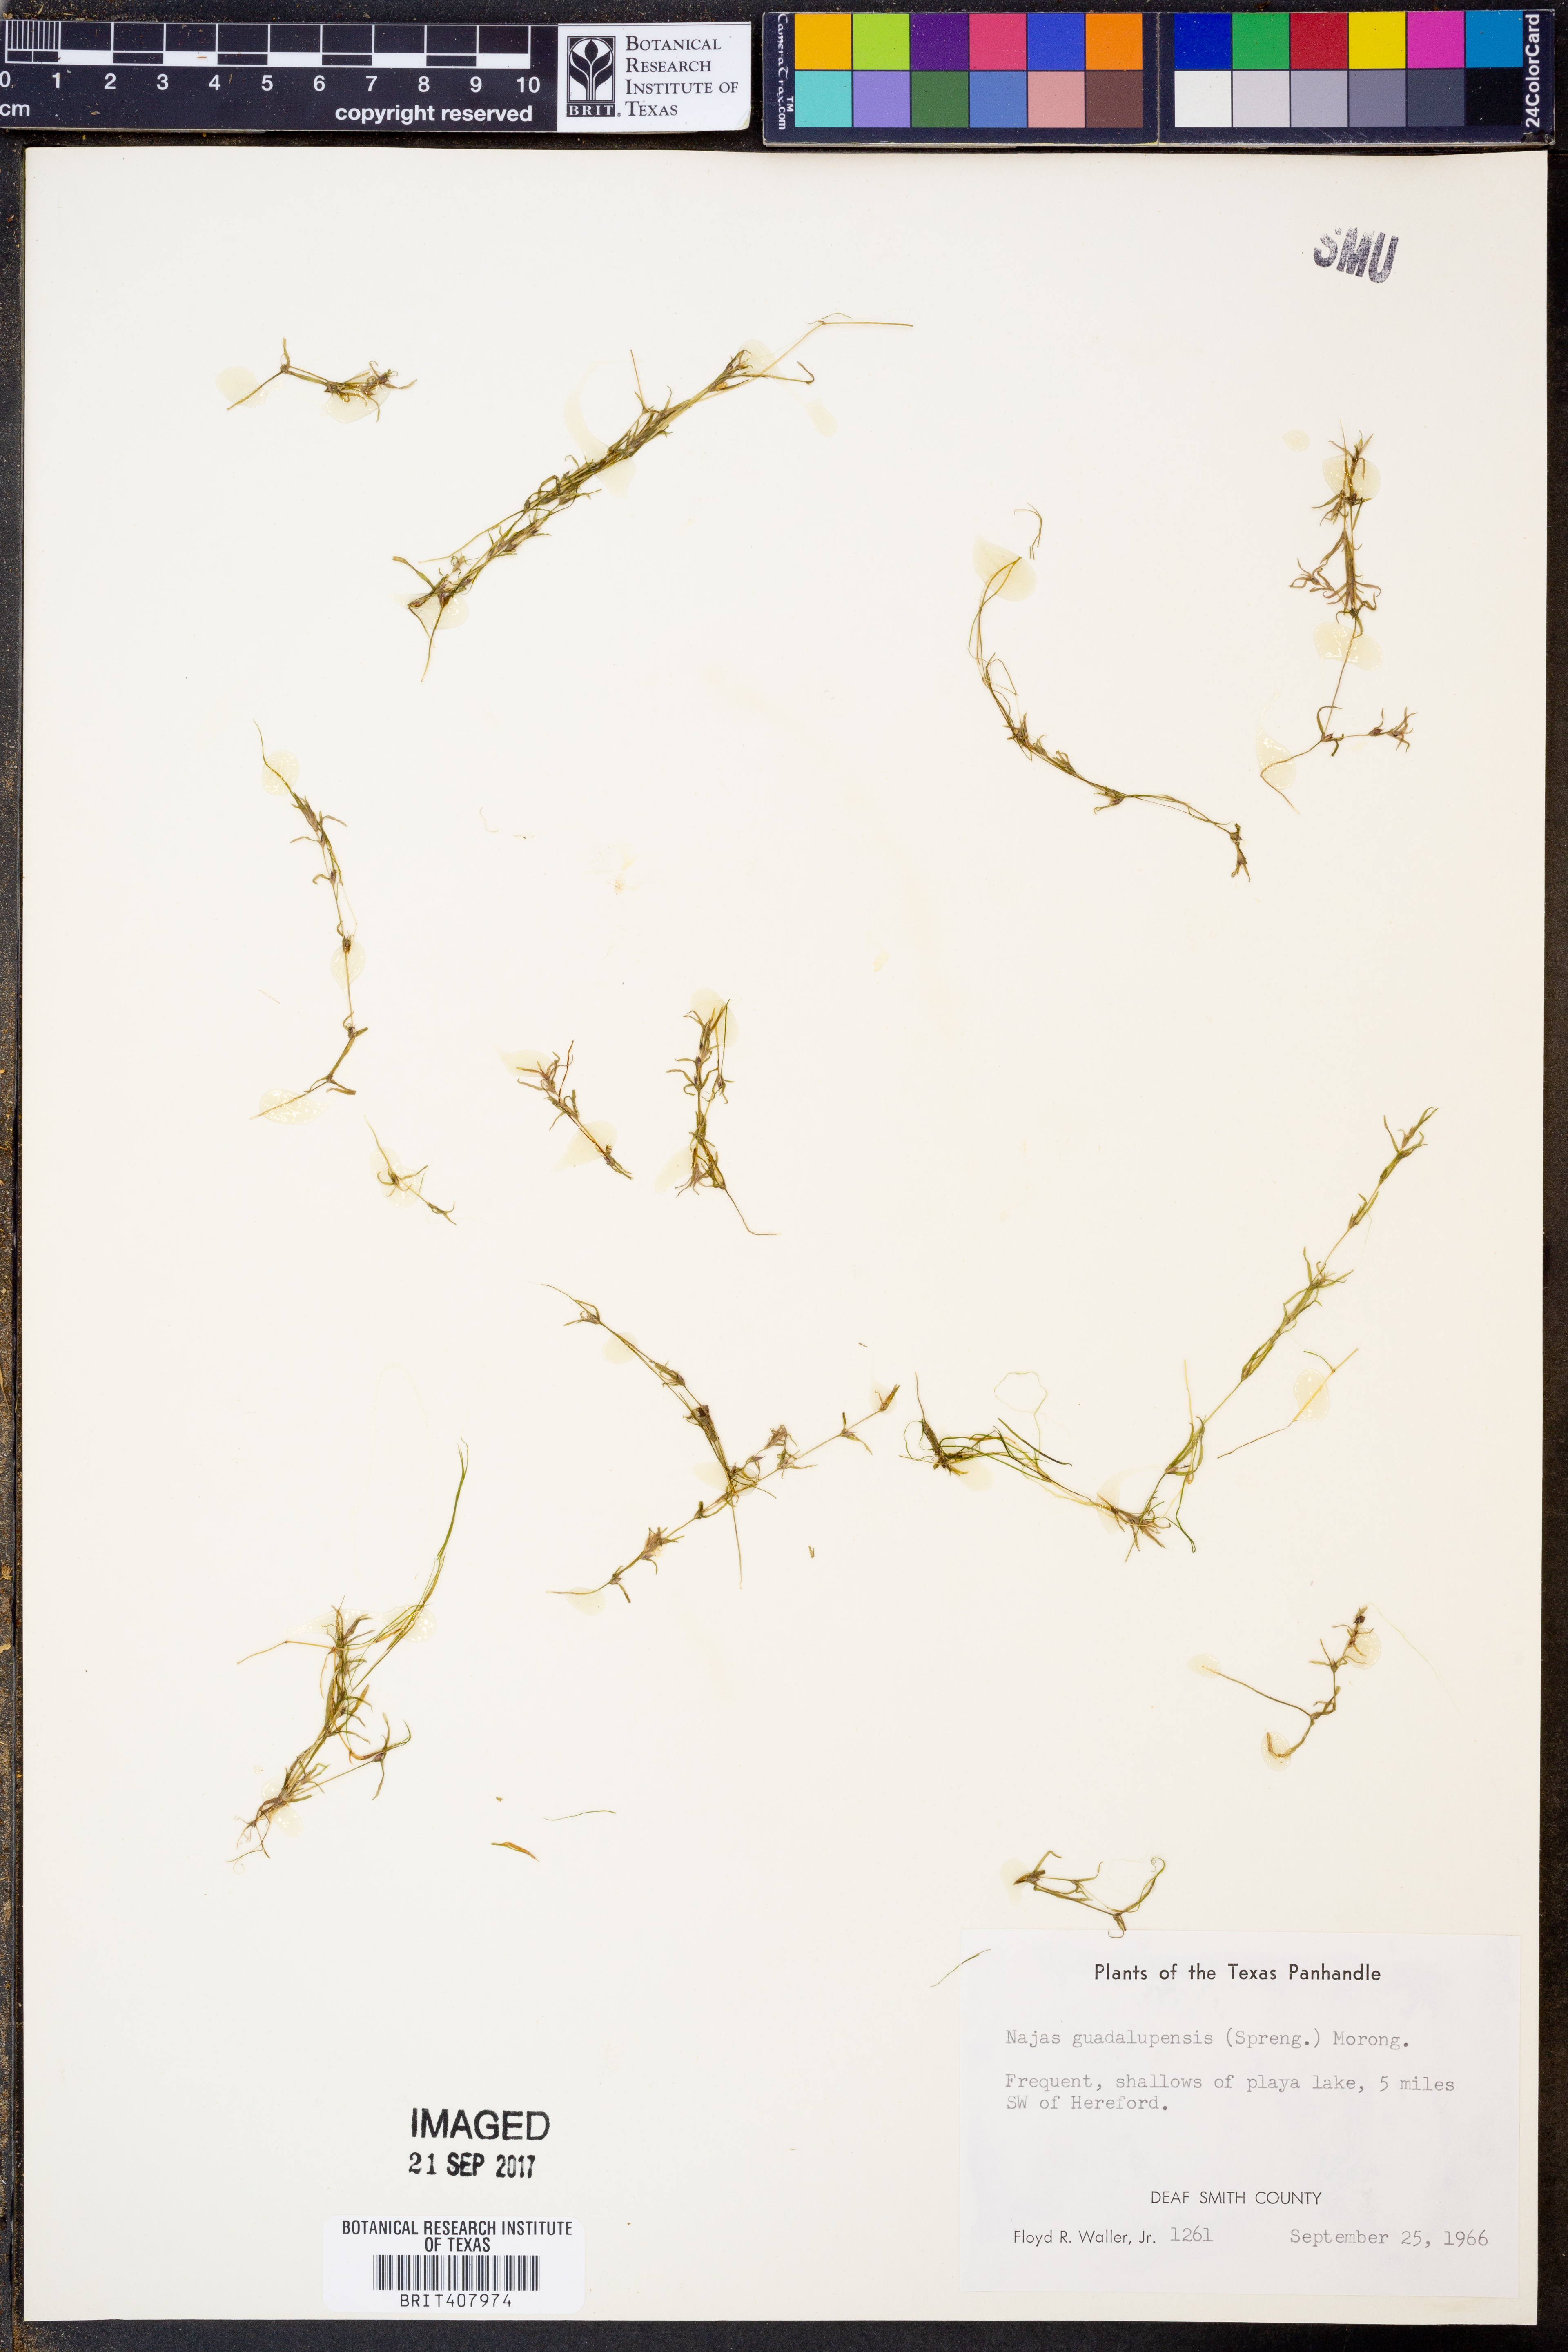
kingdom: Plantae
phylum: Tracheophyta
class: Liliopsida
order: Alismatales
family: Hydrocharitaceae
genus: Najas
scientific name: Najas guadalupensis
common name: Southern naiad
